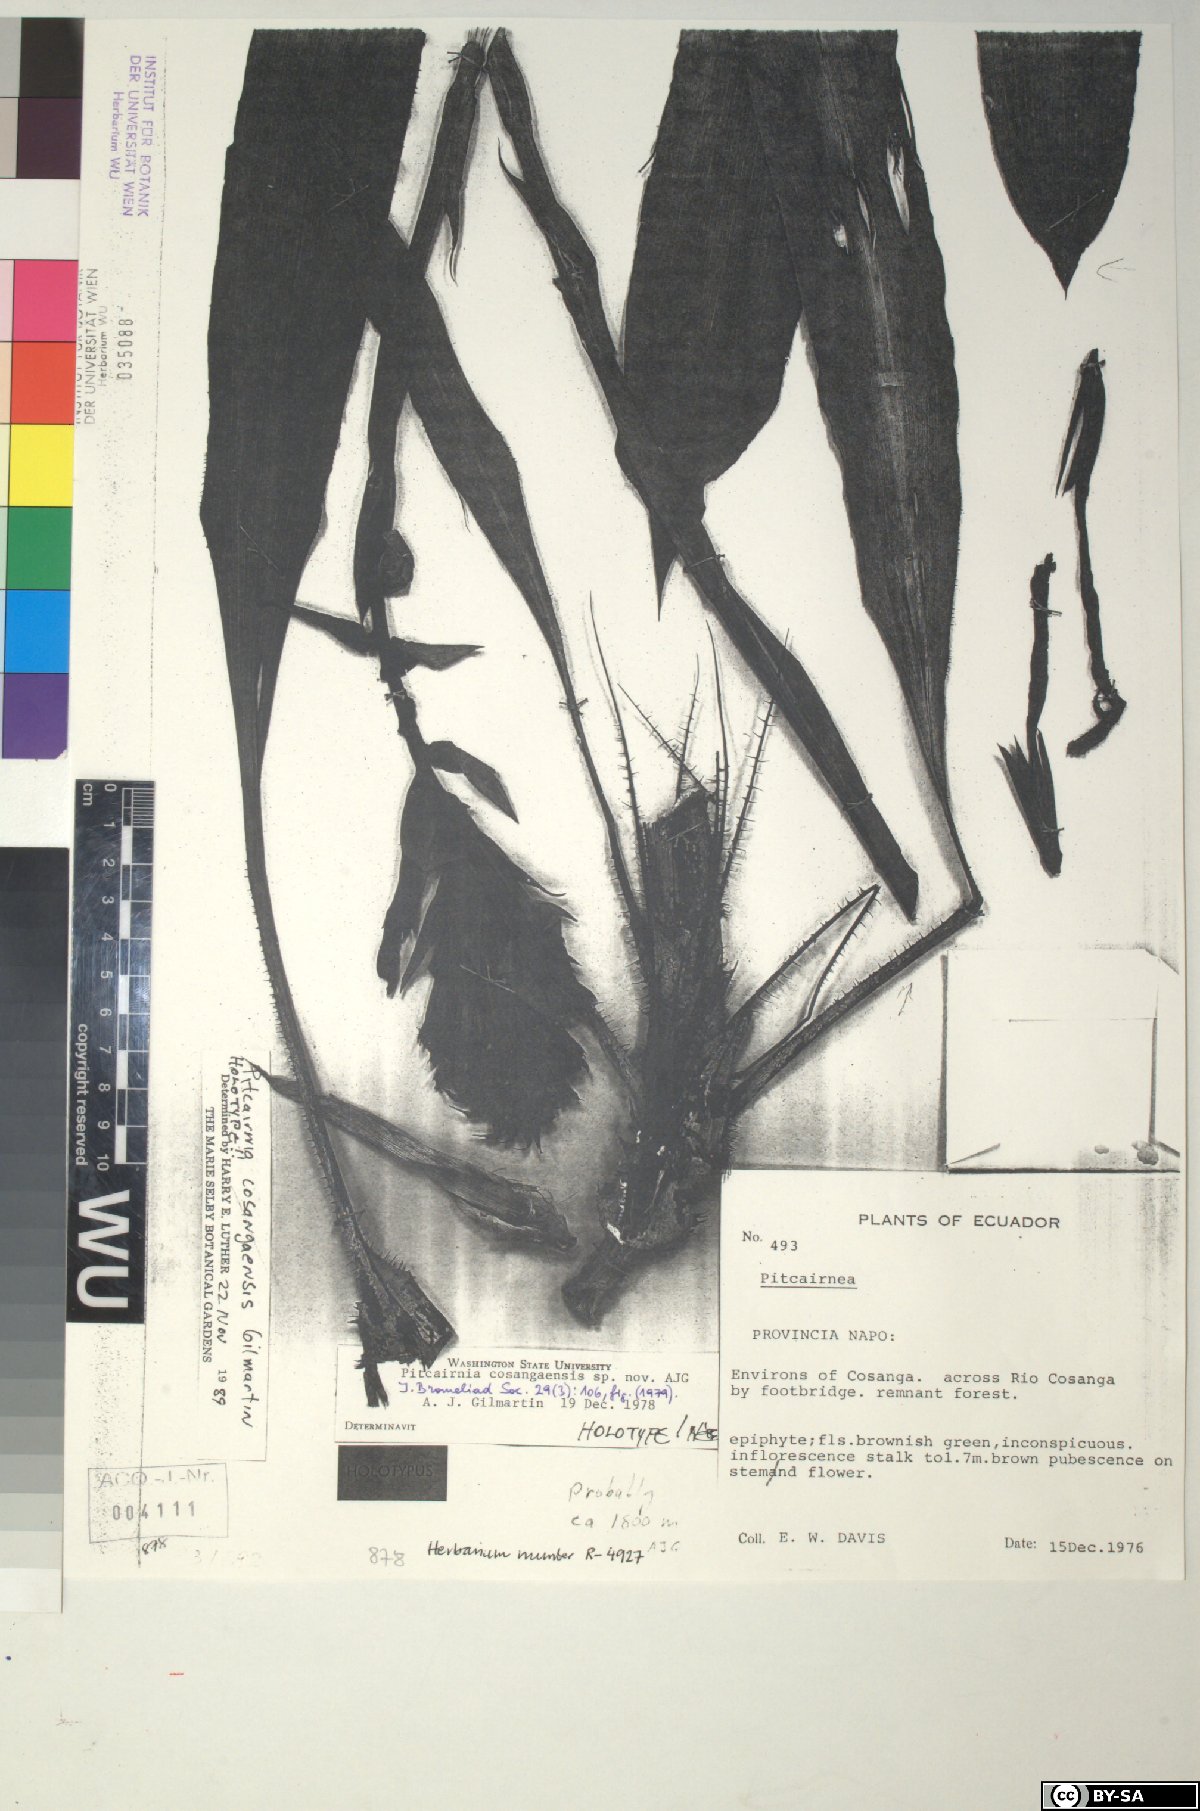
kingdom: Plantae
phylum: Tracheophyta
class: Liliopsida
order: Poales
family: Bromeliaceae
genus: Pitcairnia
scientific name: Pitcairnia cosangaensis
